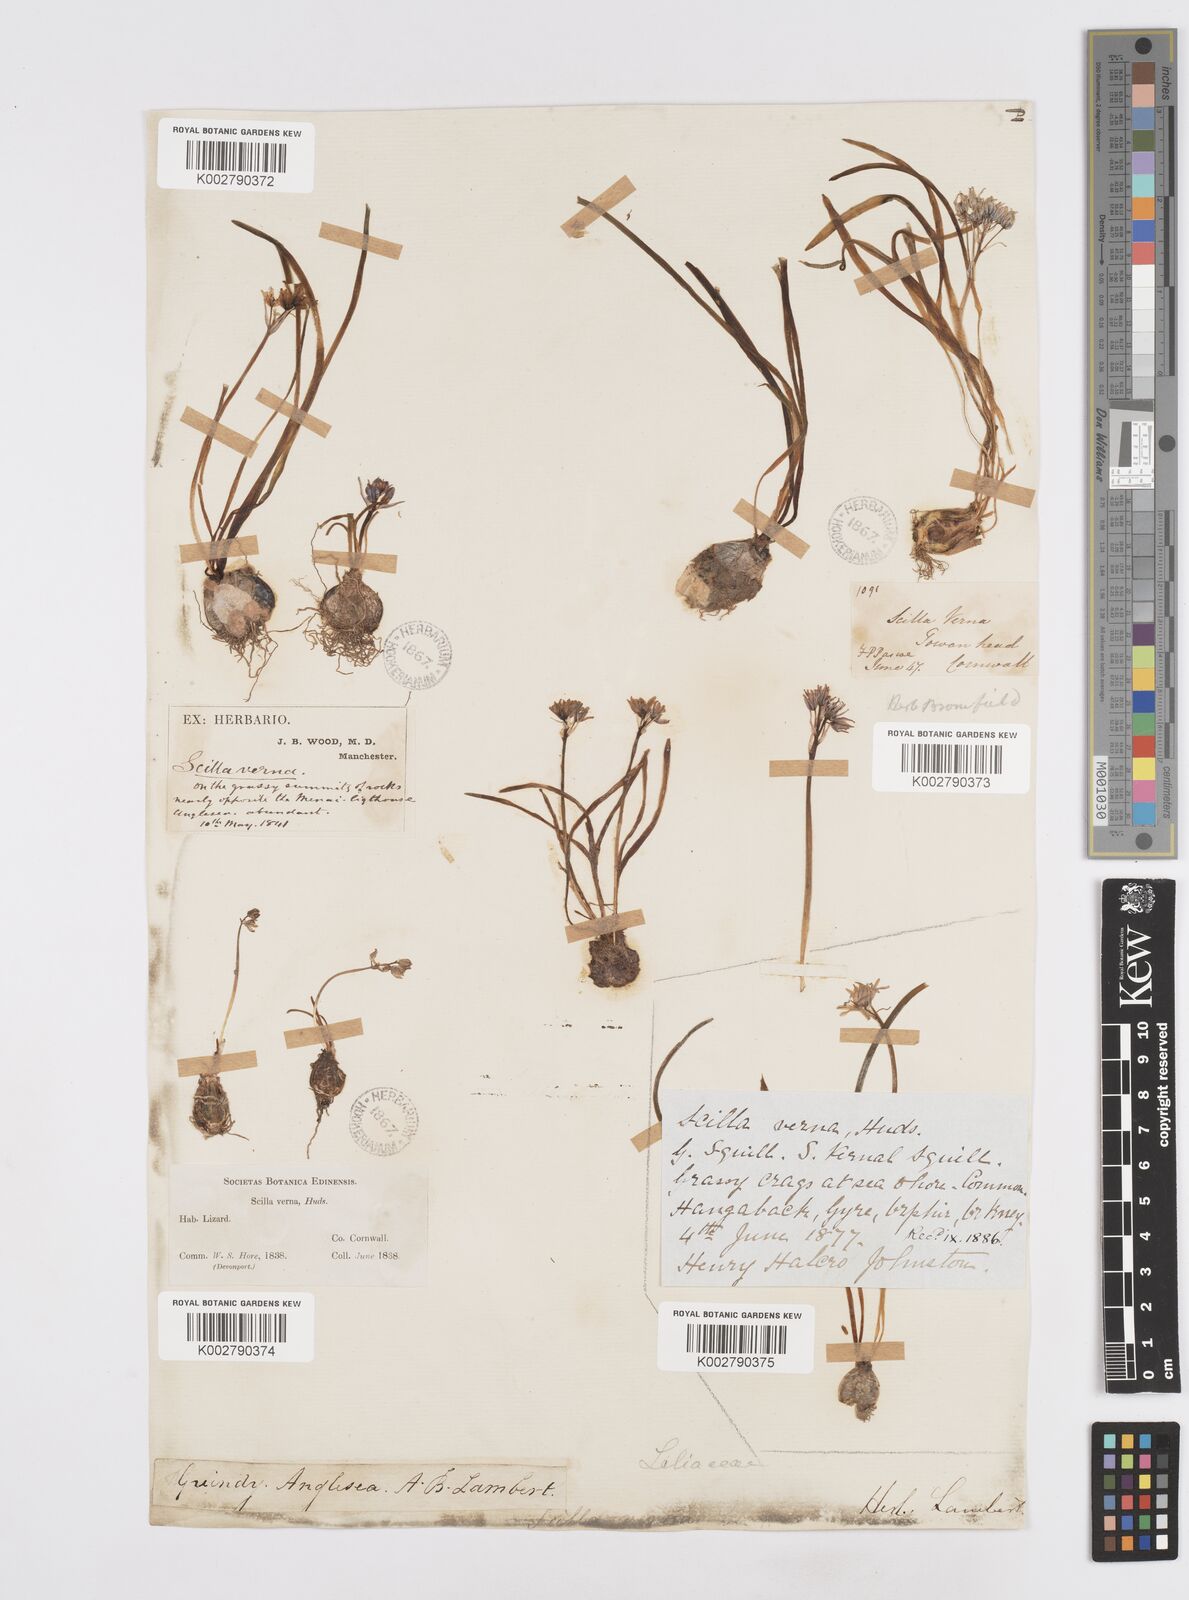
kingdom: Plantae
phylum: Tracheophyta
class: Liliopsida
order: Asparagales
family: Asparagaceae
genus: Scilla
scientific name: Scilla verna
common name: Spring squill
